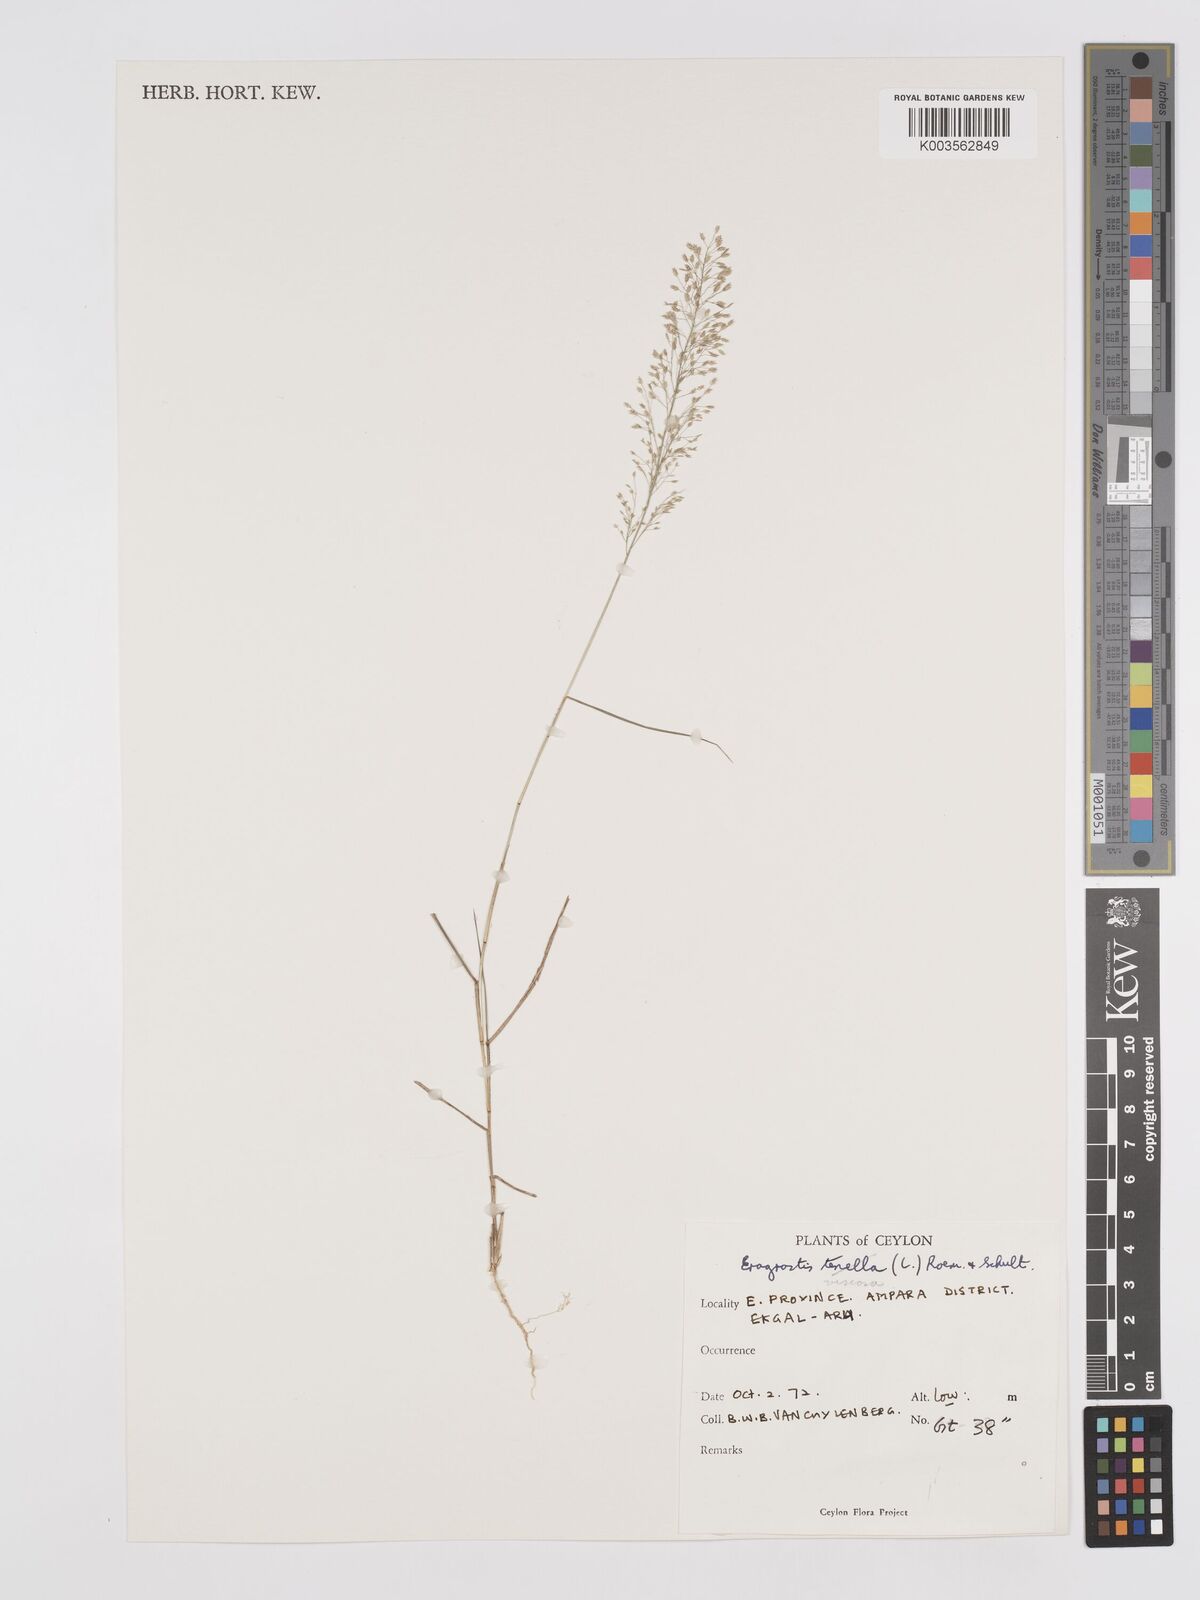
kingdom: Plantae
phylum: Tracheophyta
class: Liliopsida
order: Poales
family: Poaceae
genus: Eragrostis
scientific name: Eragrostis viscosa
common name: Sticky love grass
